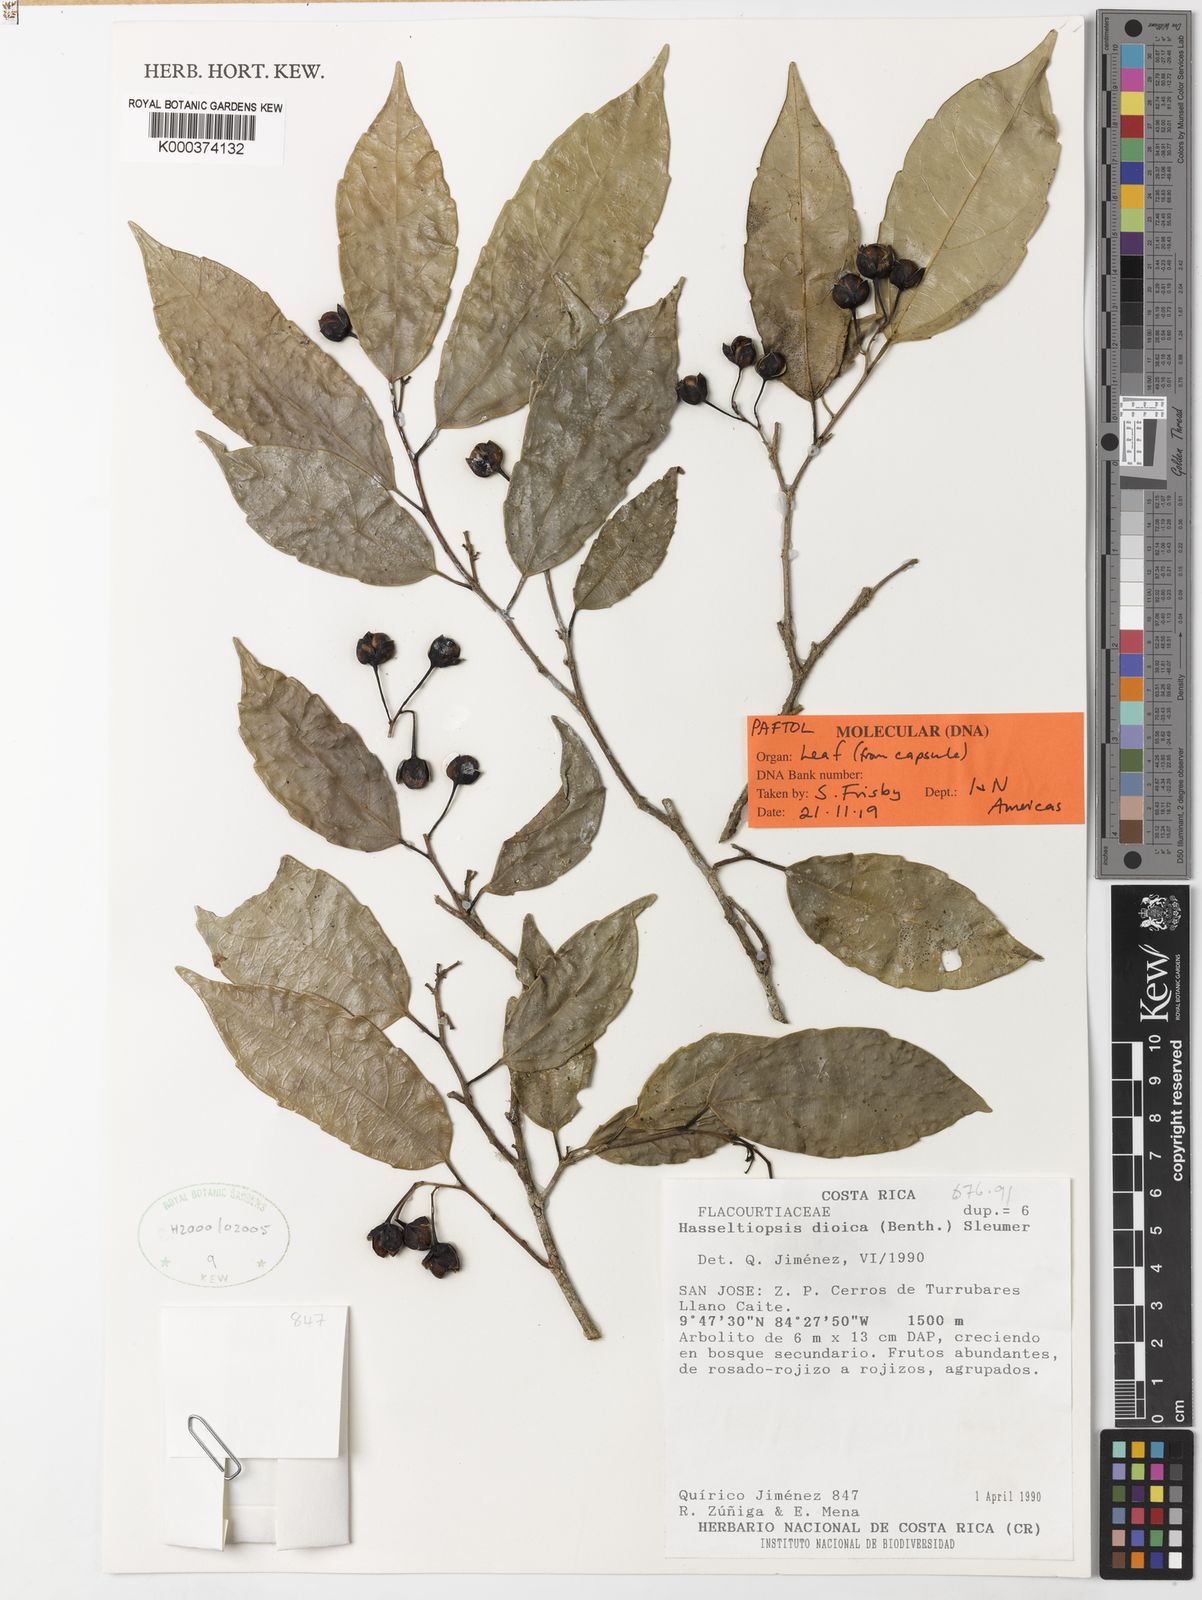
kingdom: Plantae
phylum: Tracheophyta
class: Magnoliopsida
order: Malpighiales
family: Salicaceae
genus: Hasseltiopsis
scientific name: Hasseltiopsis dioica
